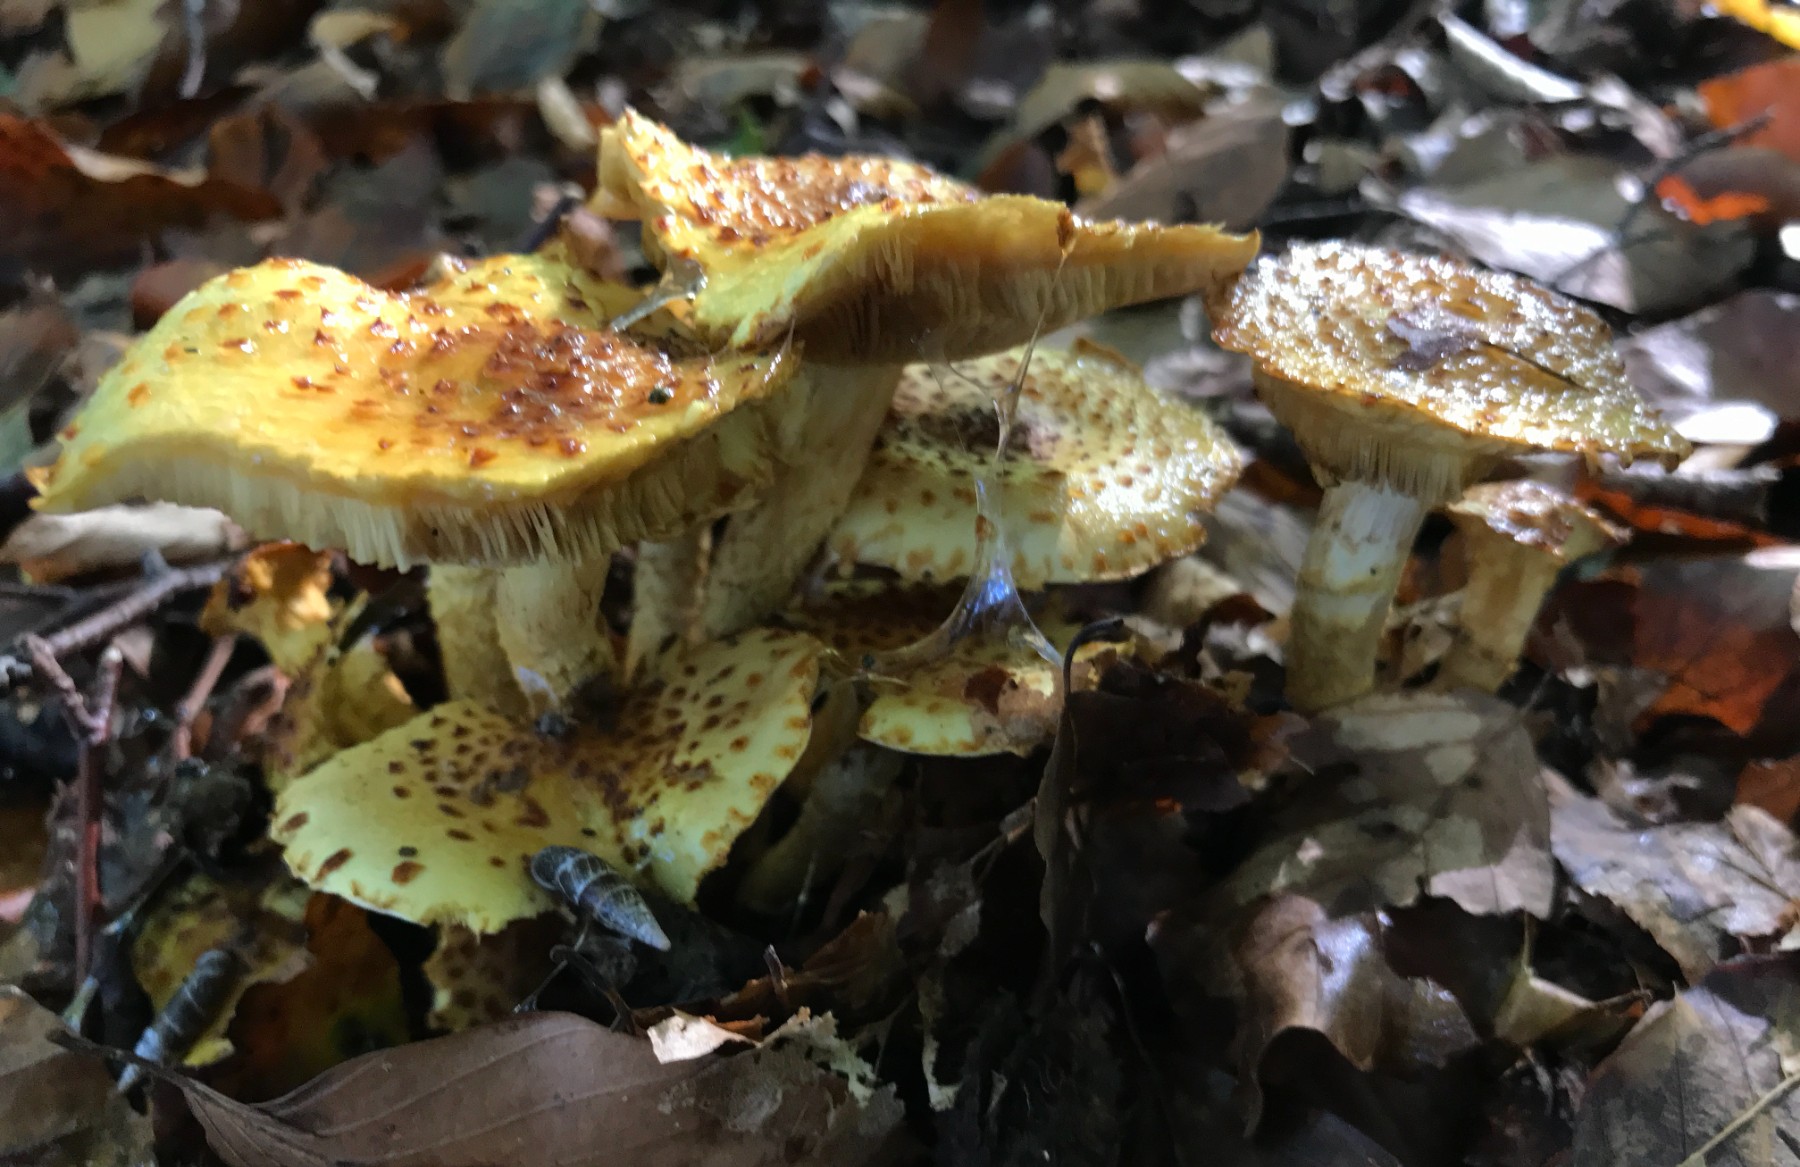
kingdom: Fungi
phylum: Basidiomycota
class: Agaricomycetes
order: Agaricales
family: Strophariaceae
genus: Pholiota
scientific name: Pholiota jahnii
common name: slimet skælhat
